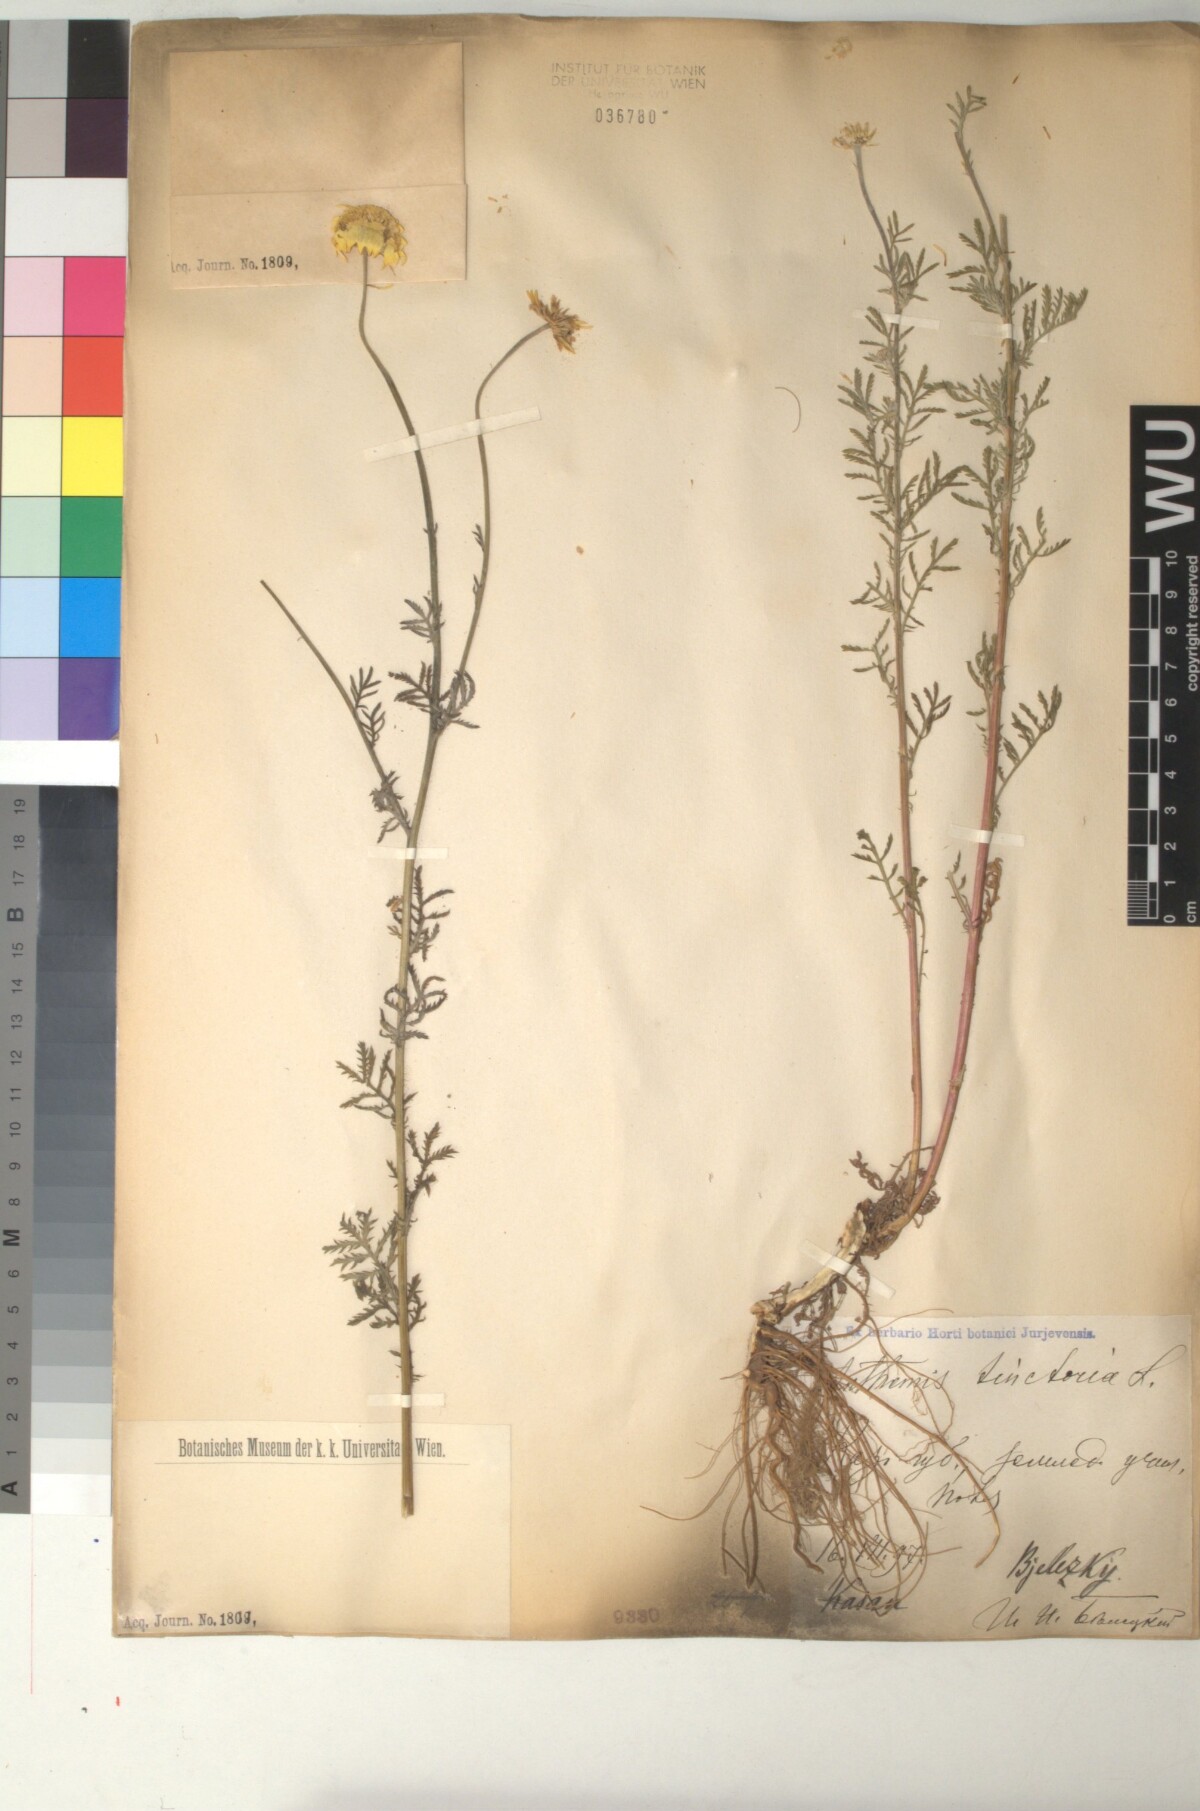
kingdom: Plantae
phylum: Tracheophyta
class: Magnoliopsida
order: Asterales
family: Asteraceae
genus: Cota
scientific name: Cota tinctoria
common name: Golden chamomile
